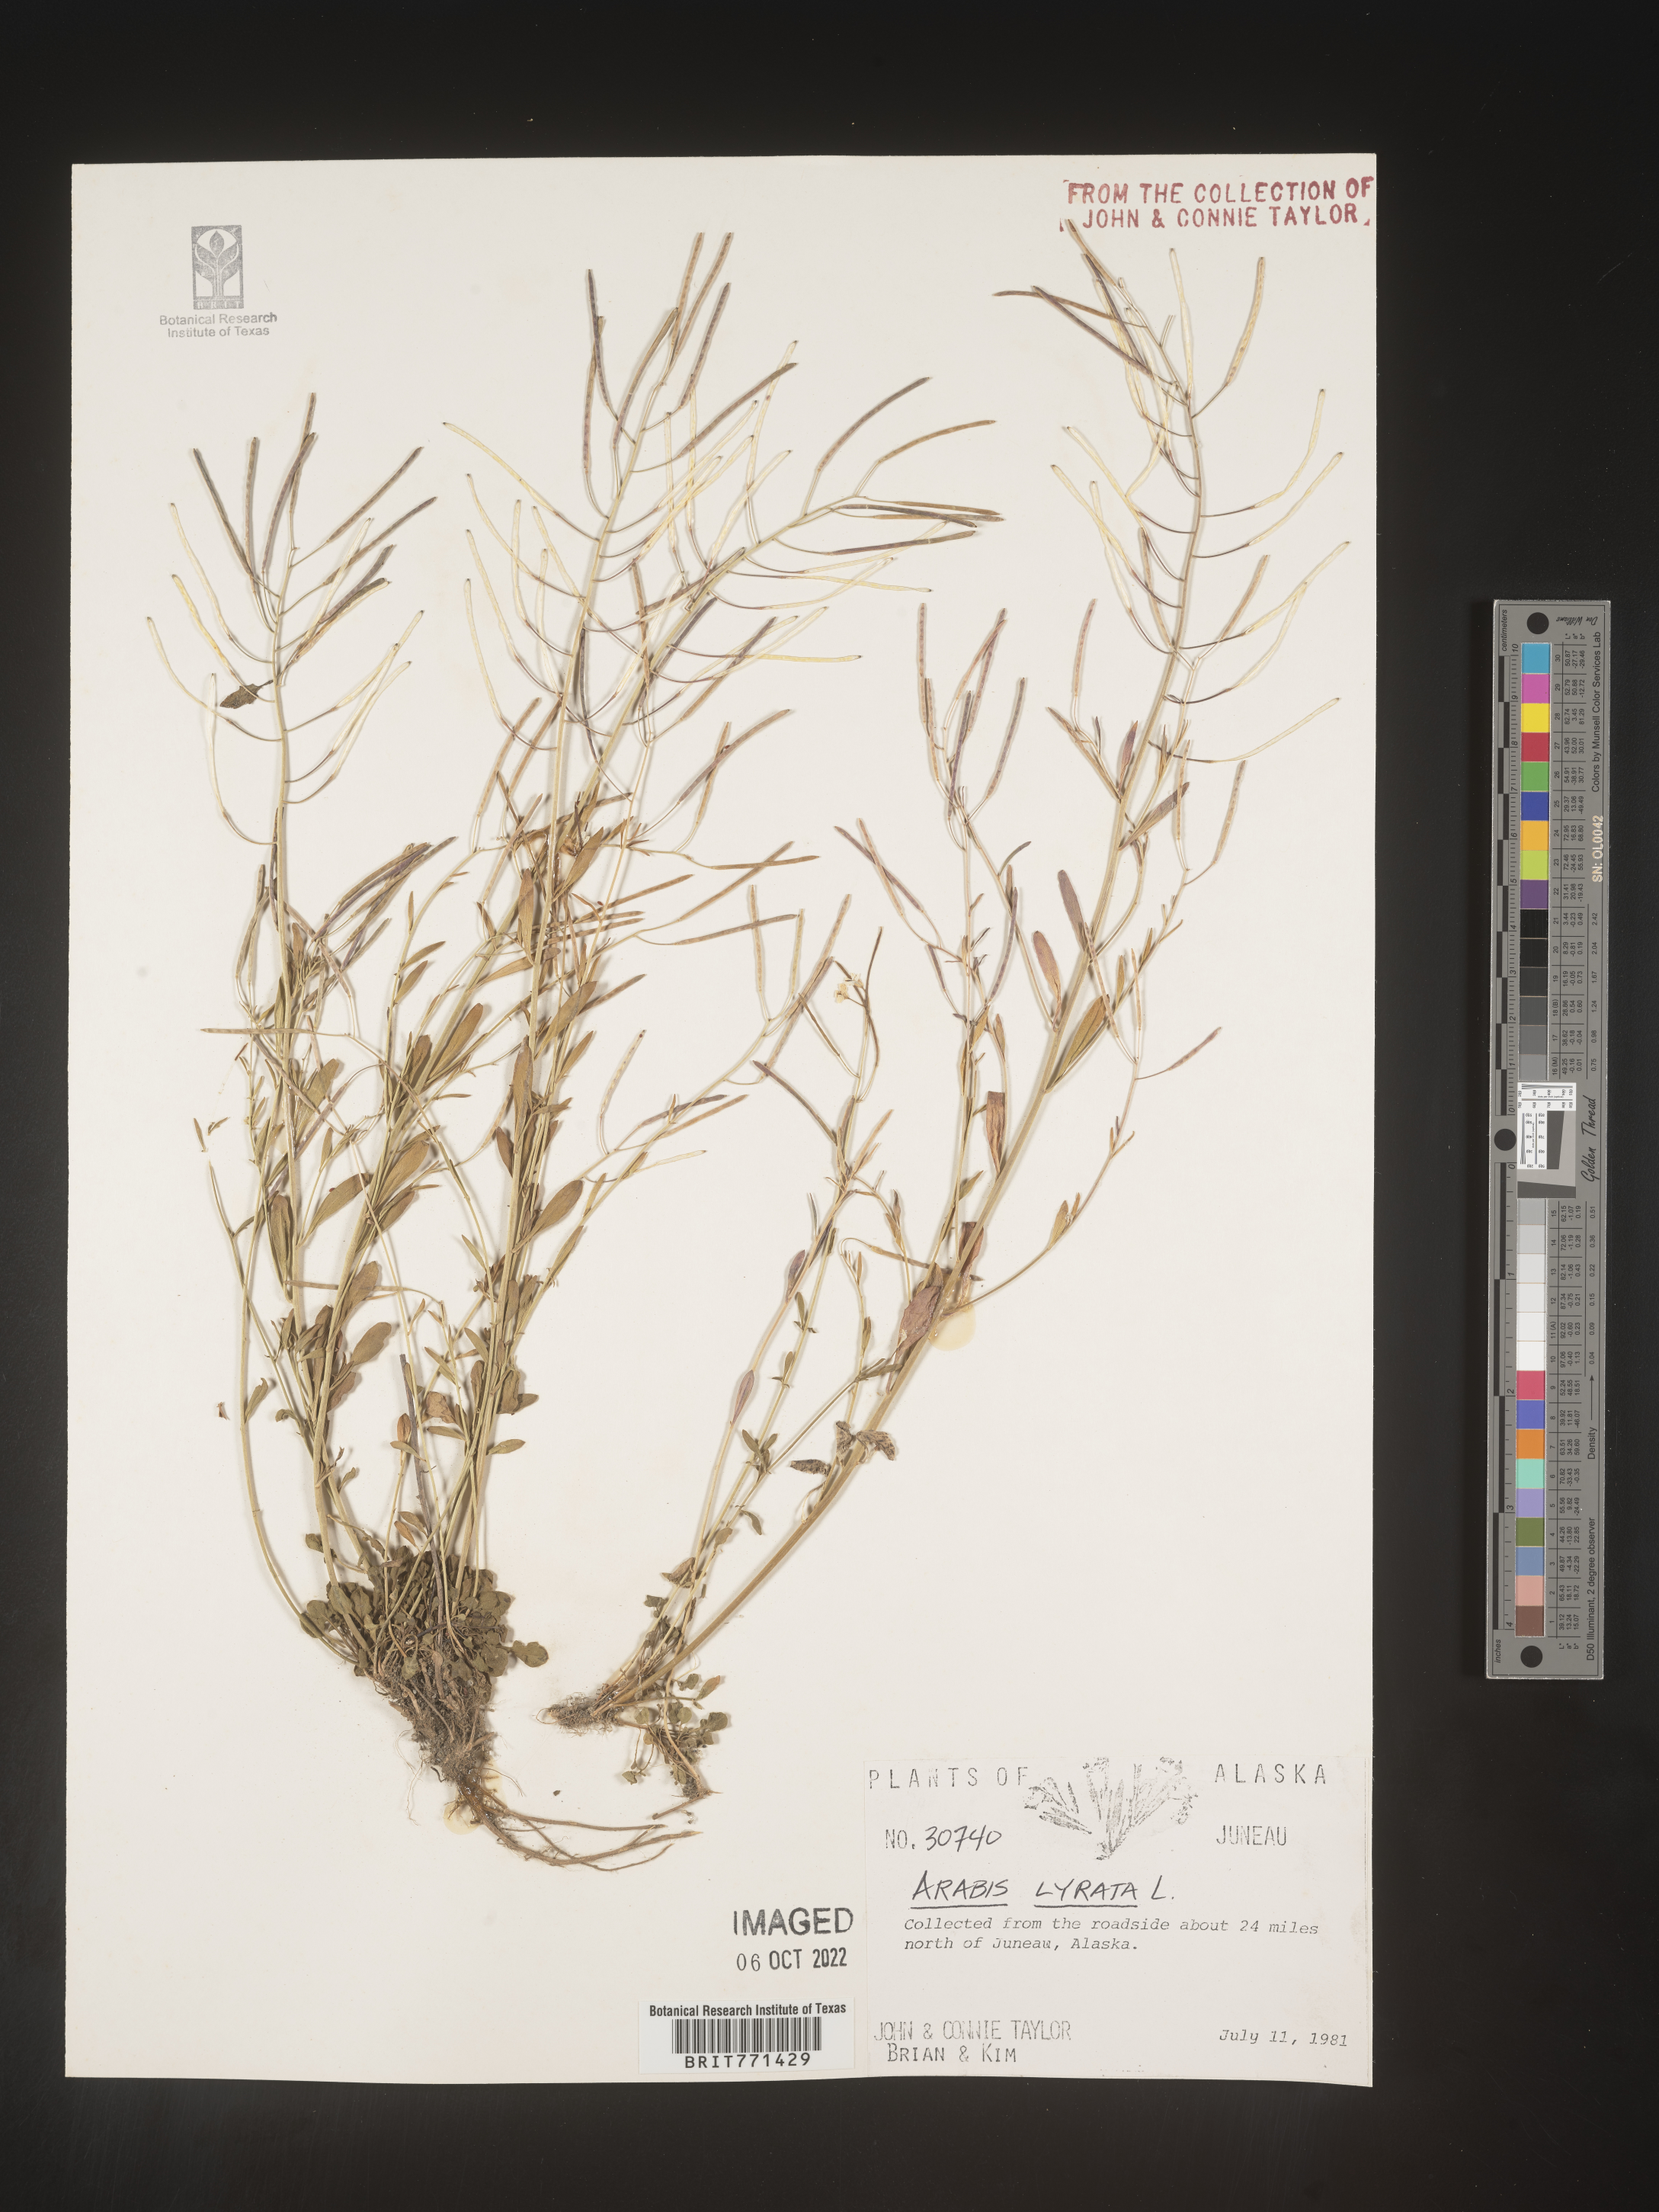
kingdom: Plantae
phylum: Tracheophyta
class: Magnoliopsida
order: Brassicales
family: Brassicaceae
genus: Arabidopsis
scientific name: Arabidopsis lyrata
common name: Lyrate rockcress
